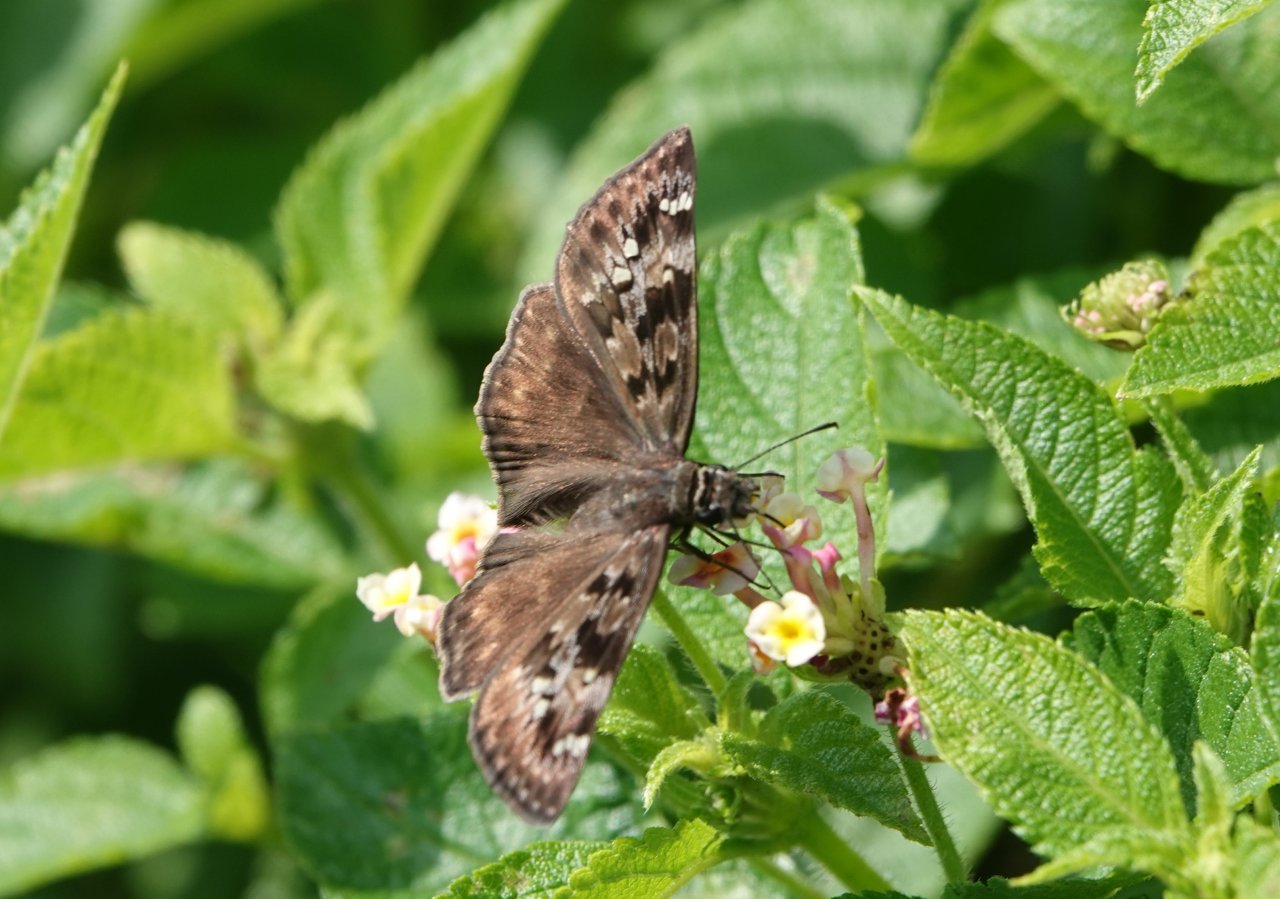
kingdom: Animalia
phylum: Arthropoda
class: Insecta
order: Lepidoptera
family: Hesperiidae
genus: Gesta
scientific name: Gesta
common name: Horace's Duskywing
